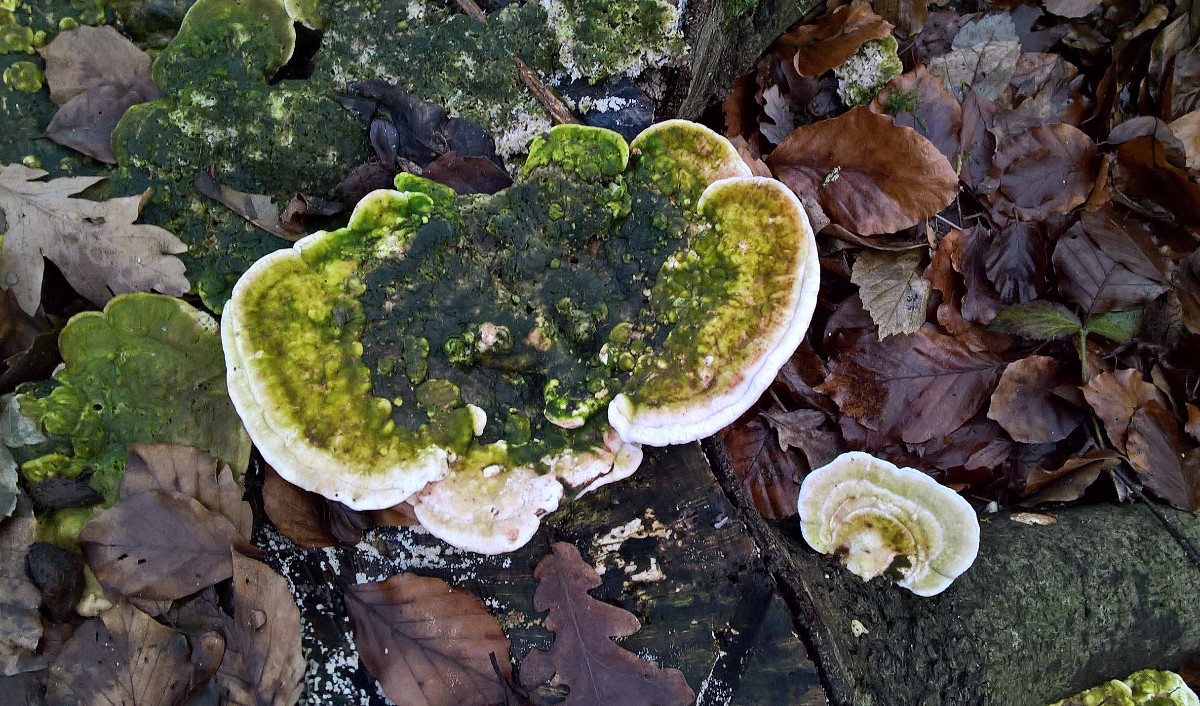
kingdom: Fungi
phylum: Basidiomycota
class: Agaricomycetes
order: Polyporales
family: Polyporaceae
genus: Trametes
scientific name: Trametes gibbosa
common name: puklet læderporesvamp
